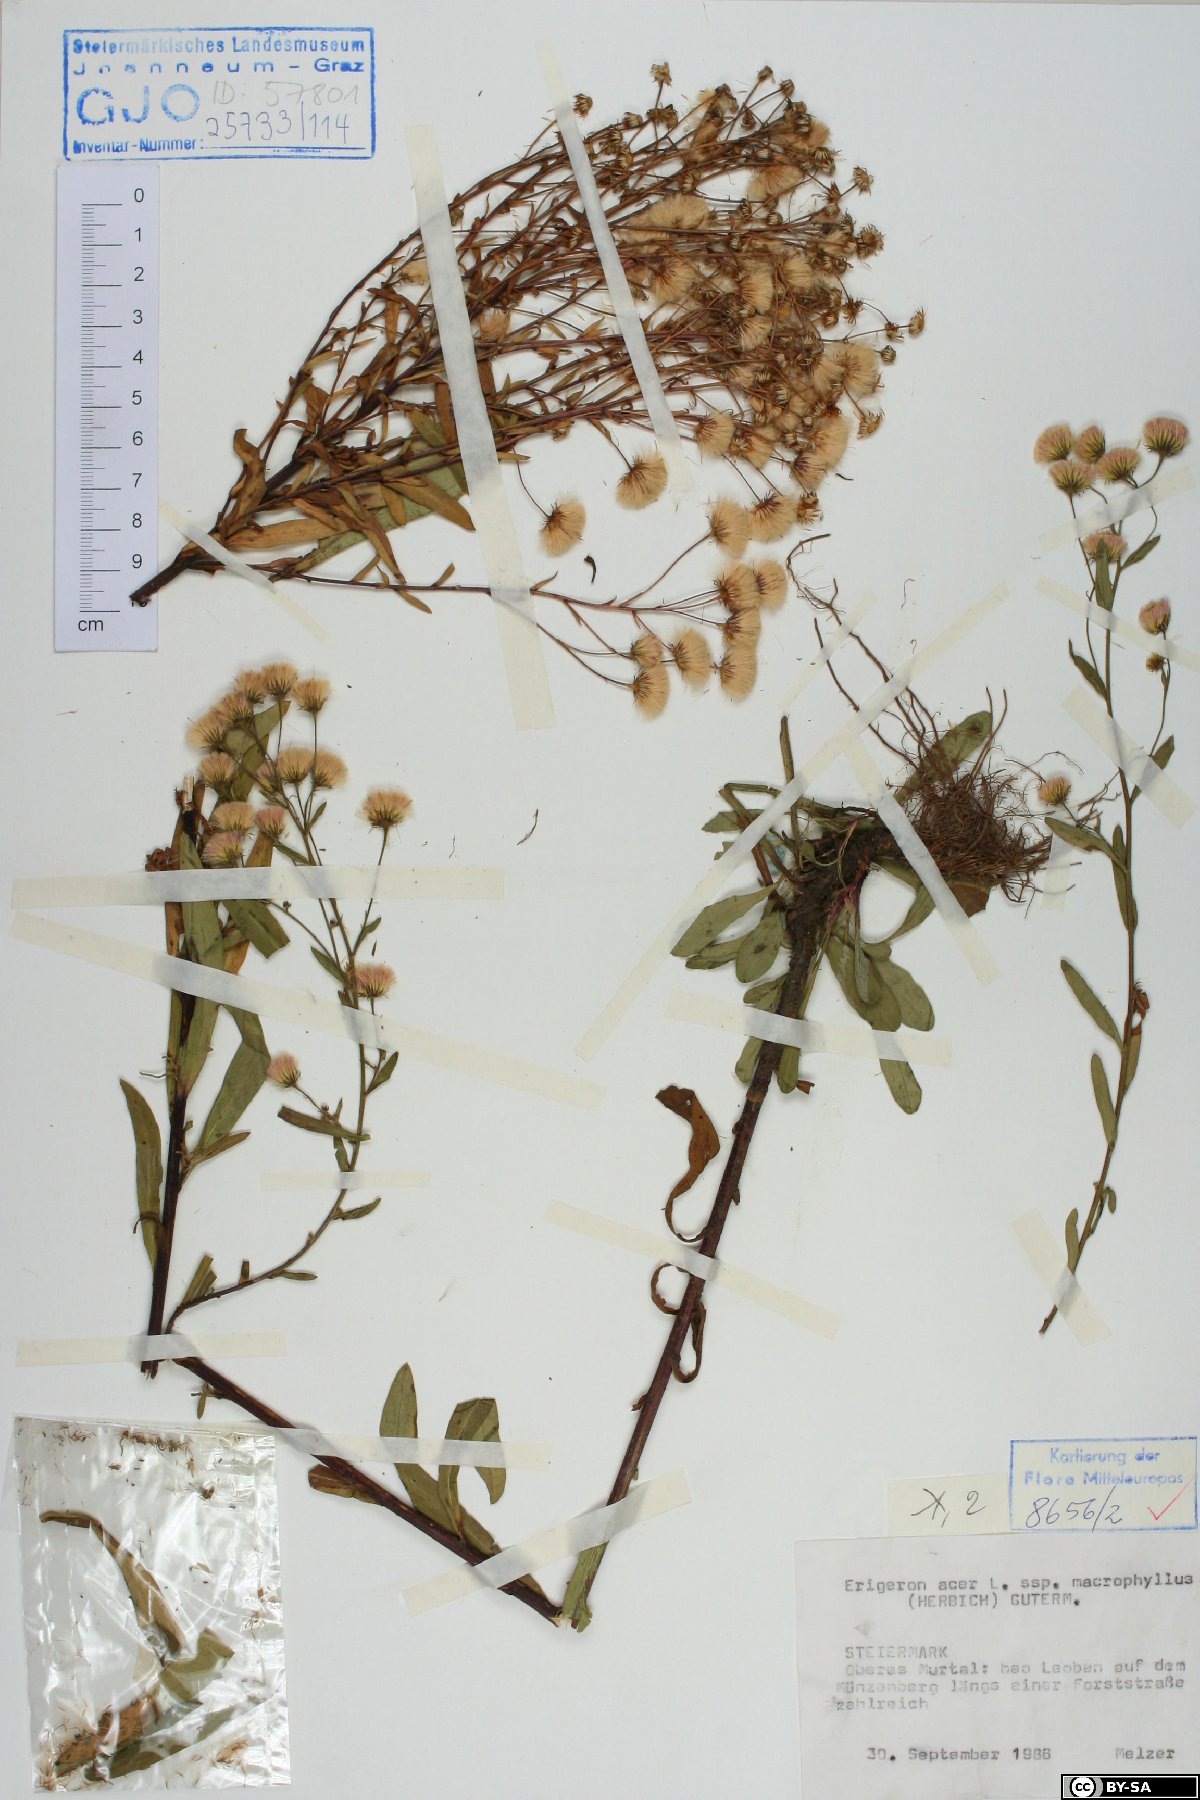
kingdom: Plantae
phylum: Tracheophyta
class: Magnoliopsida
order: Asterales
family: Asteraceae
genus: Erigeron
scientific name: Erigeron macrophyllus
